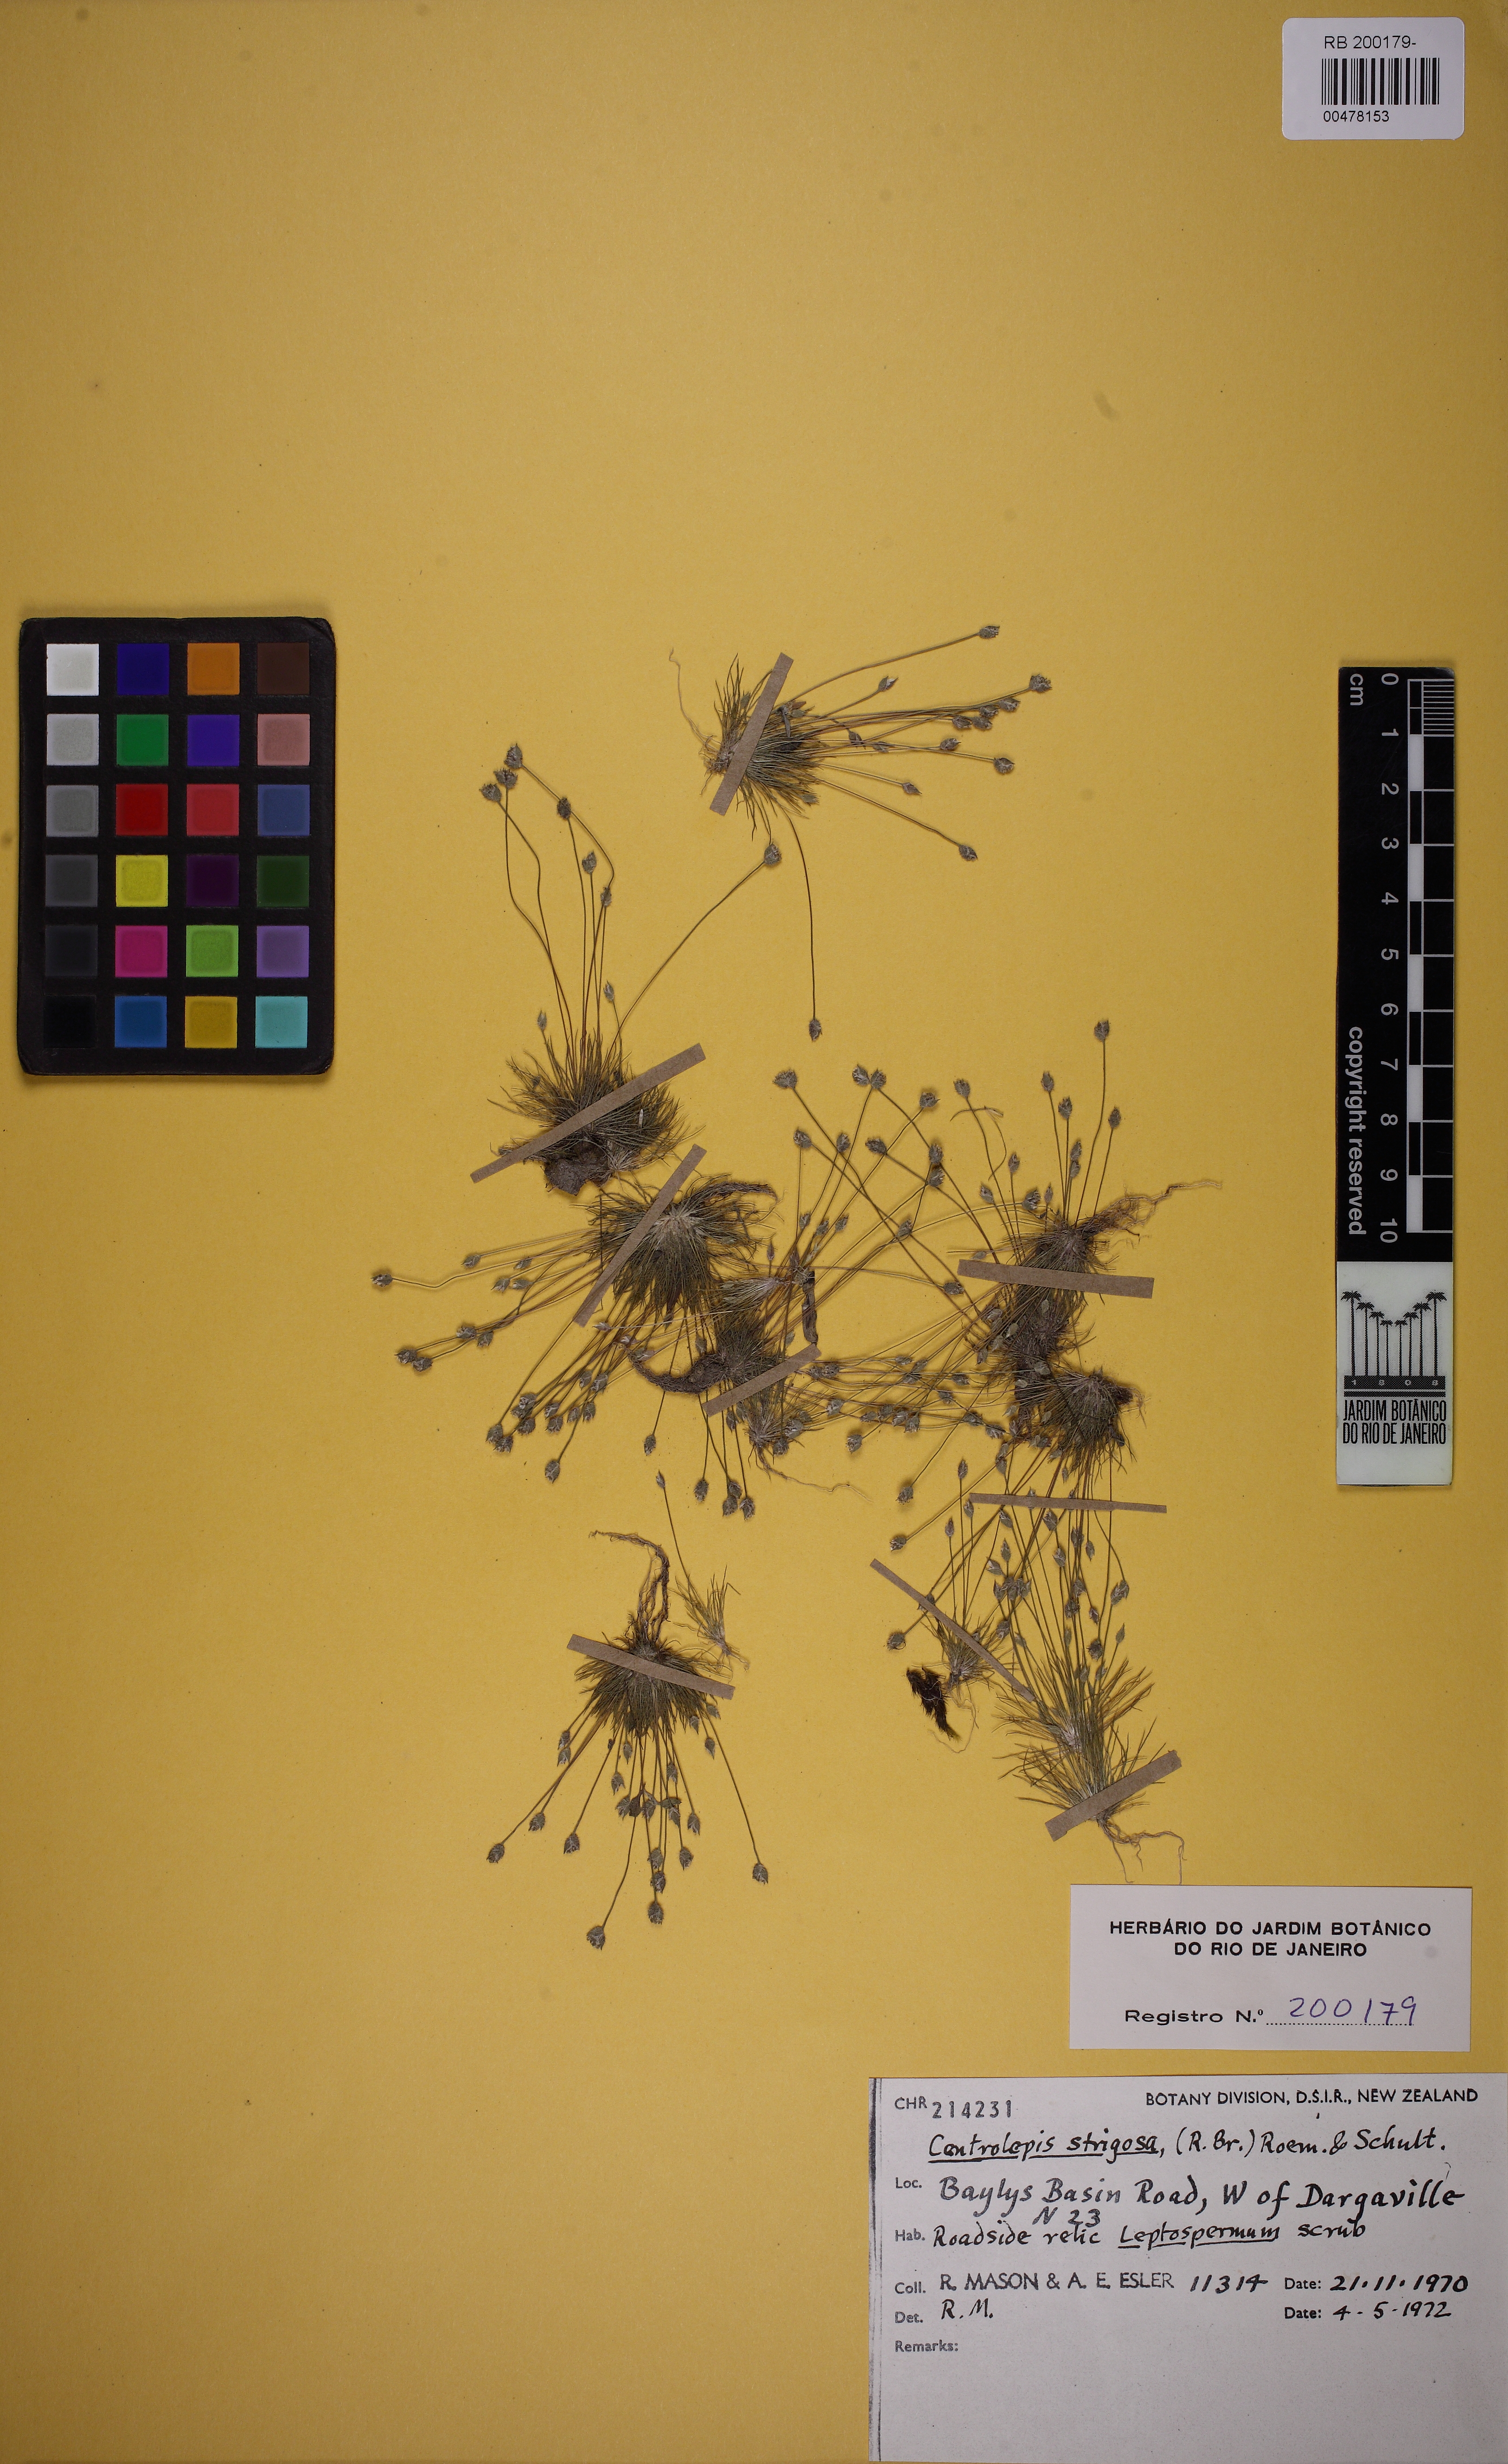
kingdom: Plantae
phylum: Tracheophyta
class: Liliopsida
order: Poales
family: Restionaceae
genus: Centrolepis
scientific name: Centrolepis strigosa
